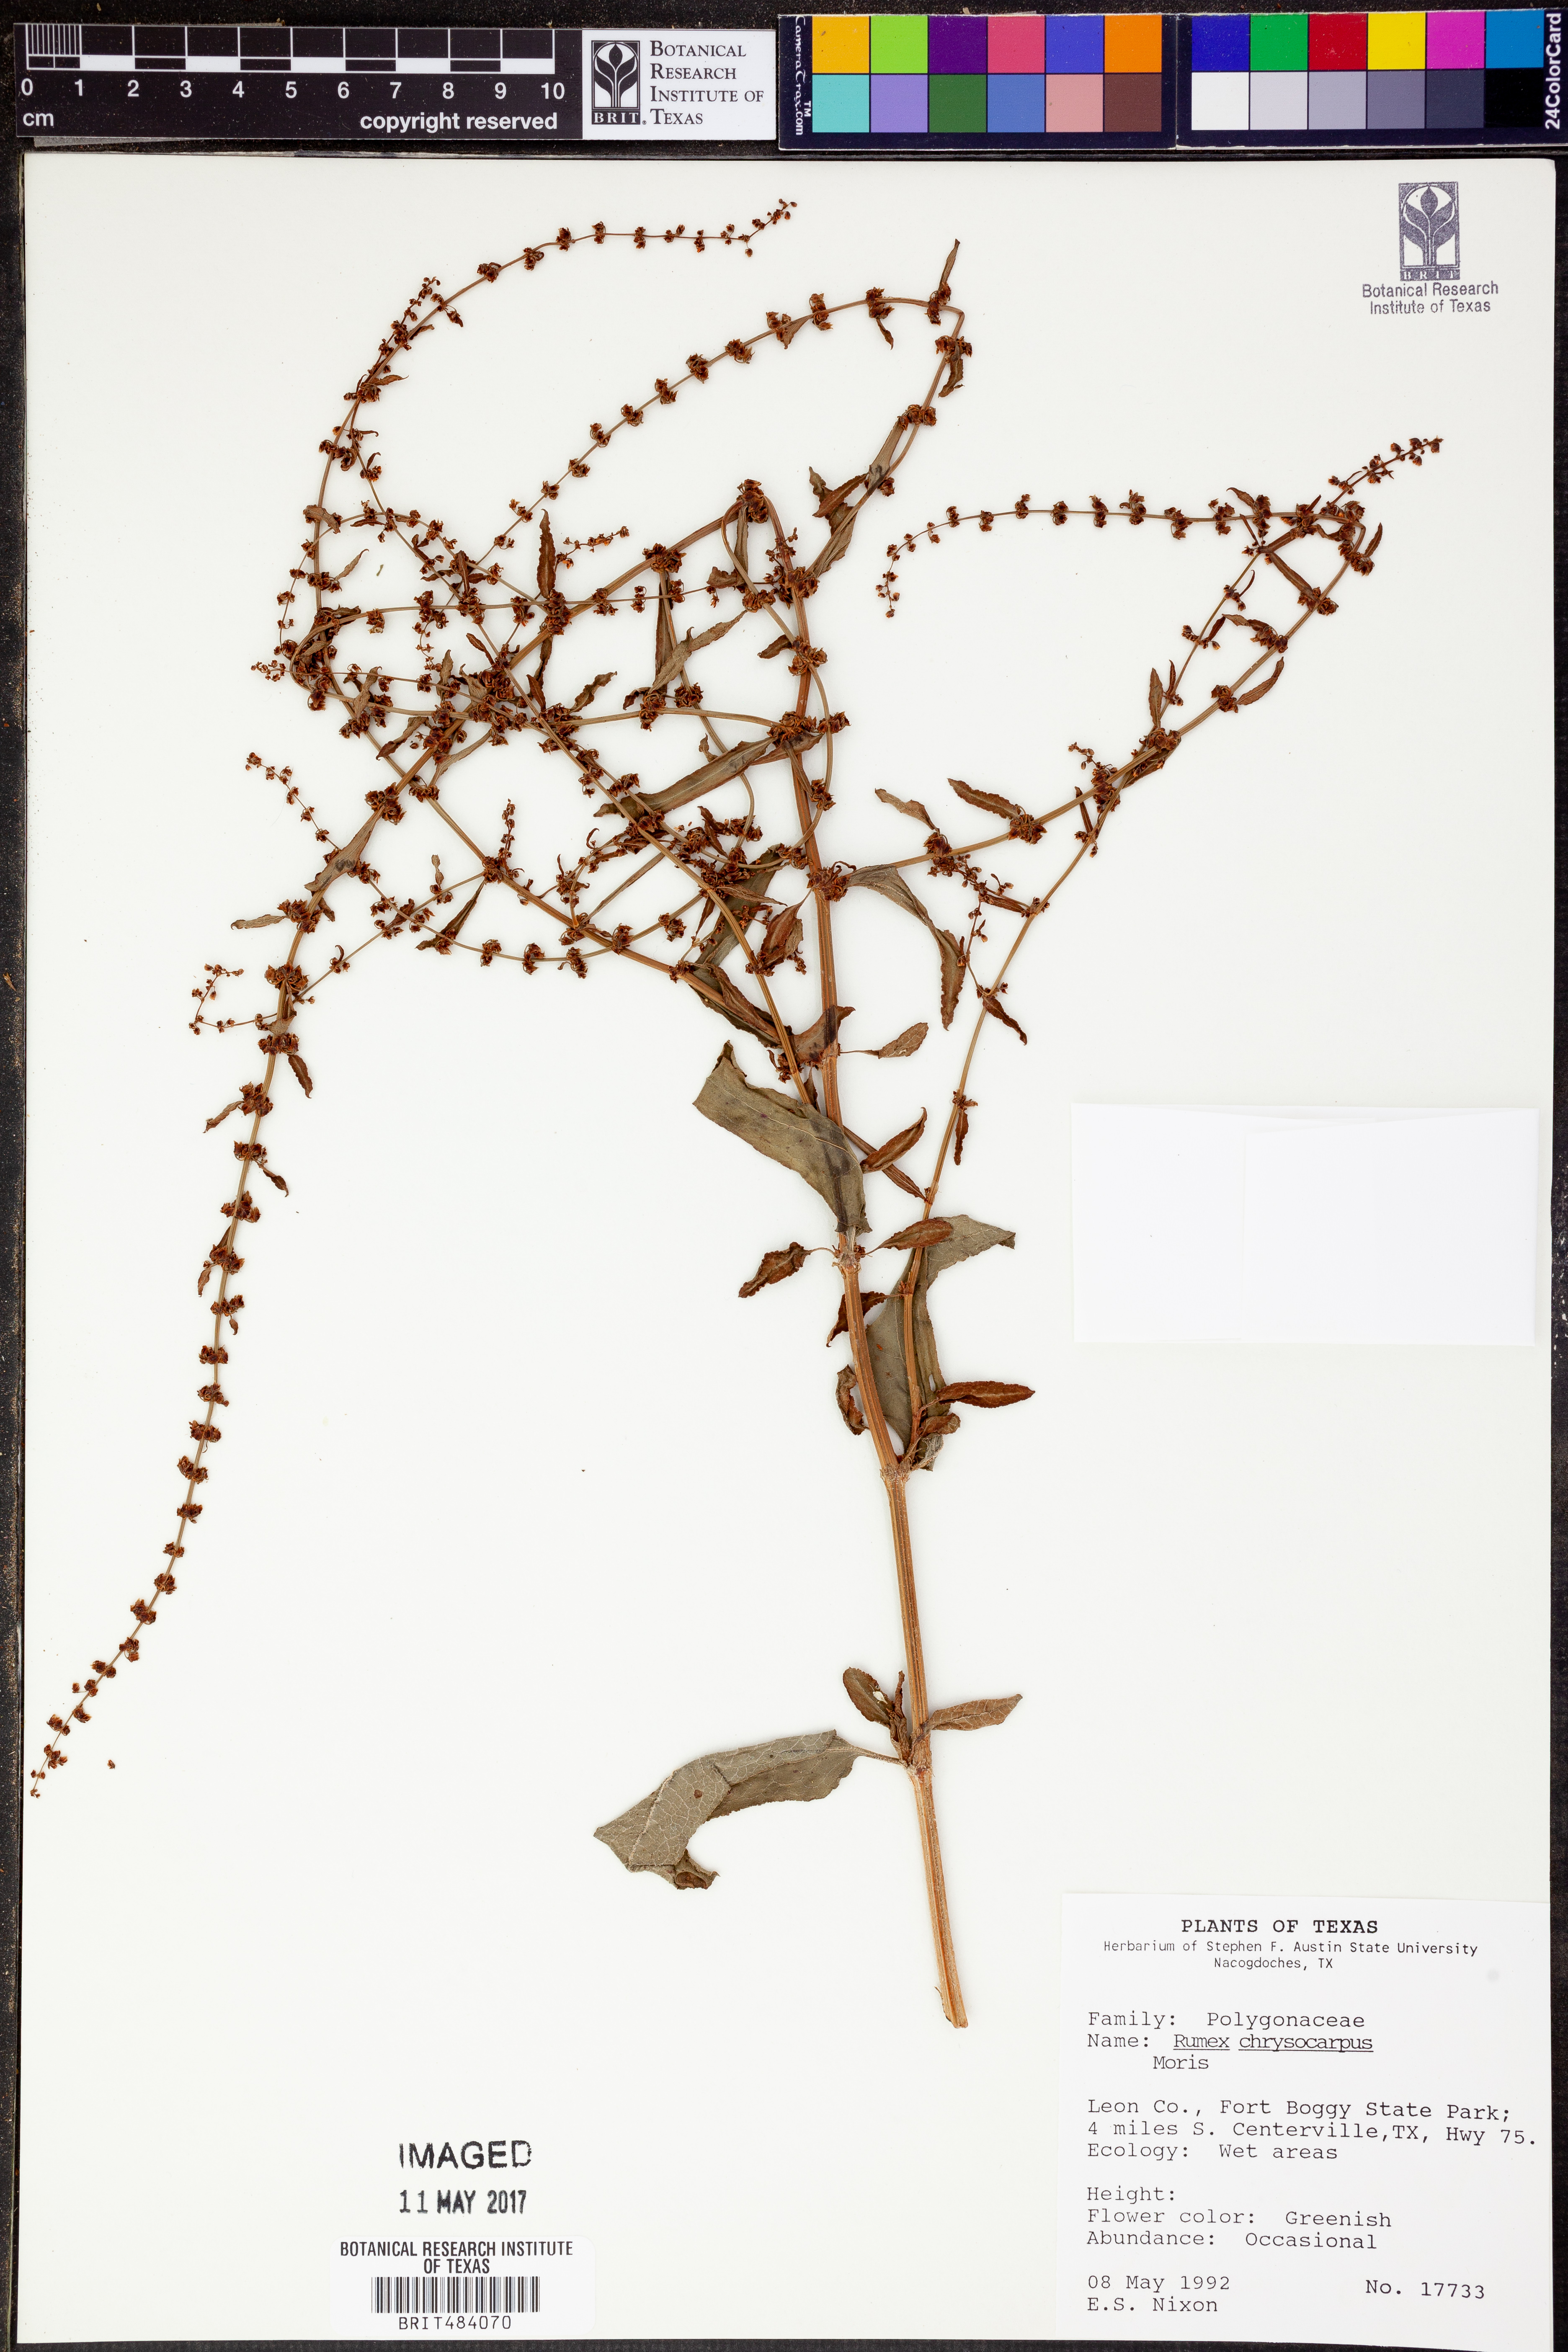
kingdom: Plantae
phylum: Tracheophyta
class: Magnoliopsida
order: Caryophyllales
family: Polygonaceae
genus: Rumex
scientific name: Rumex chrysocarpus
